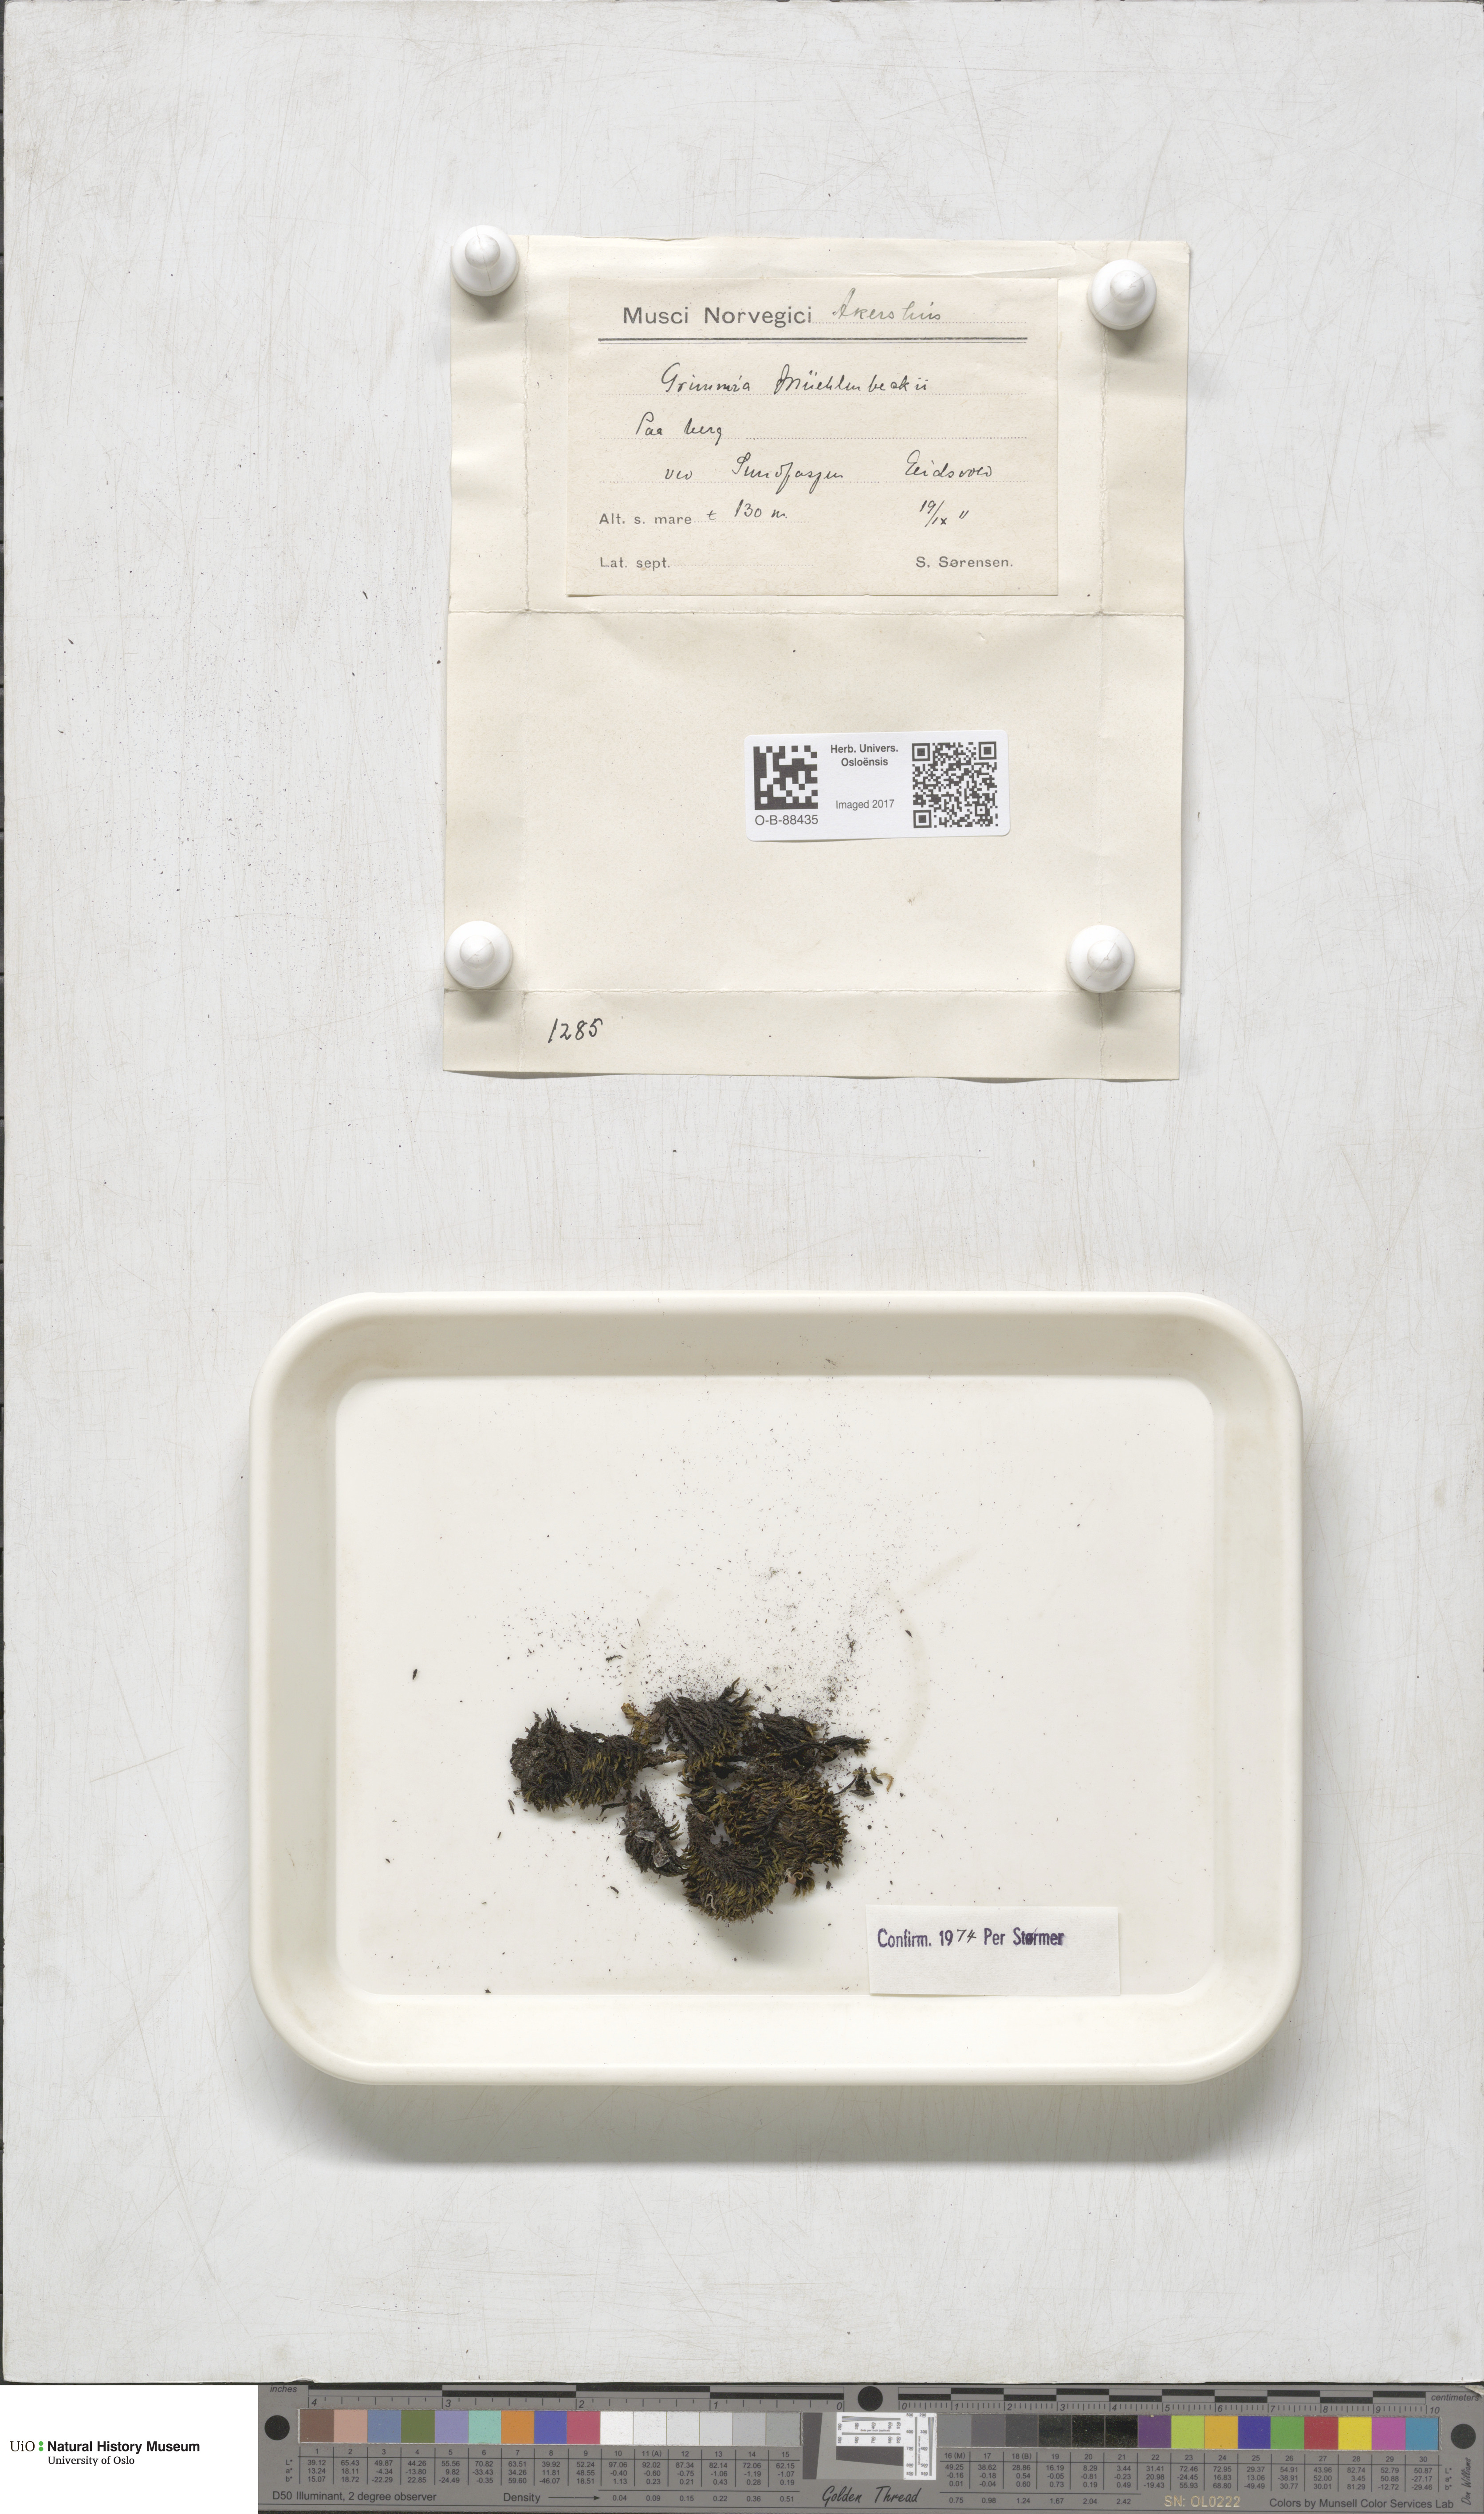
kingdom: Plantae
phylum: Bryophyta
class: Bryopsida
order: Grimmiales
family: Grimmiaceae
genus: Grimmia
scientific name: Grimmia trichophylla
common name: Hair-pointed grimmia
